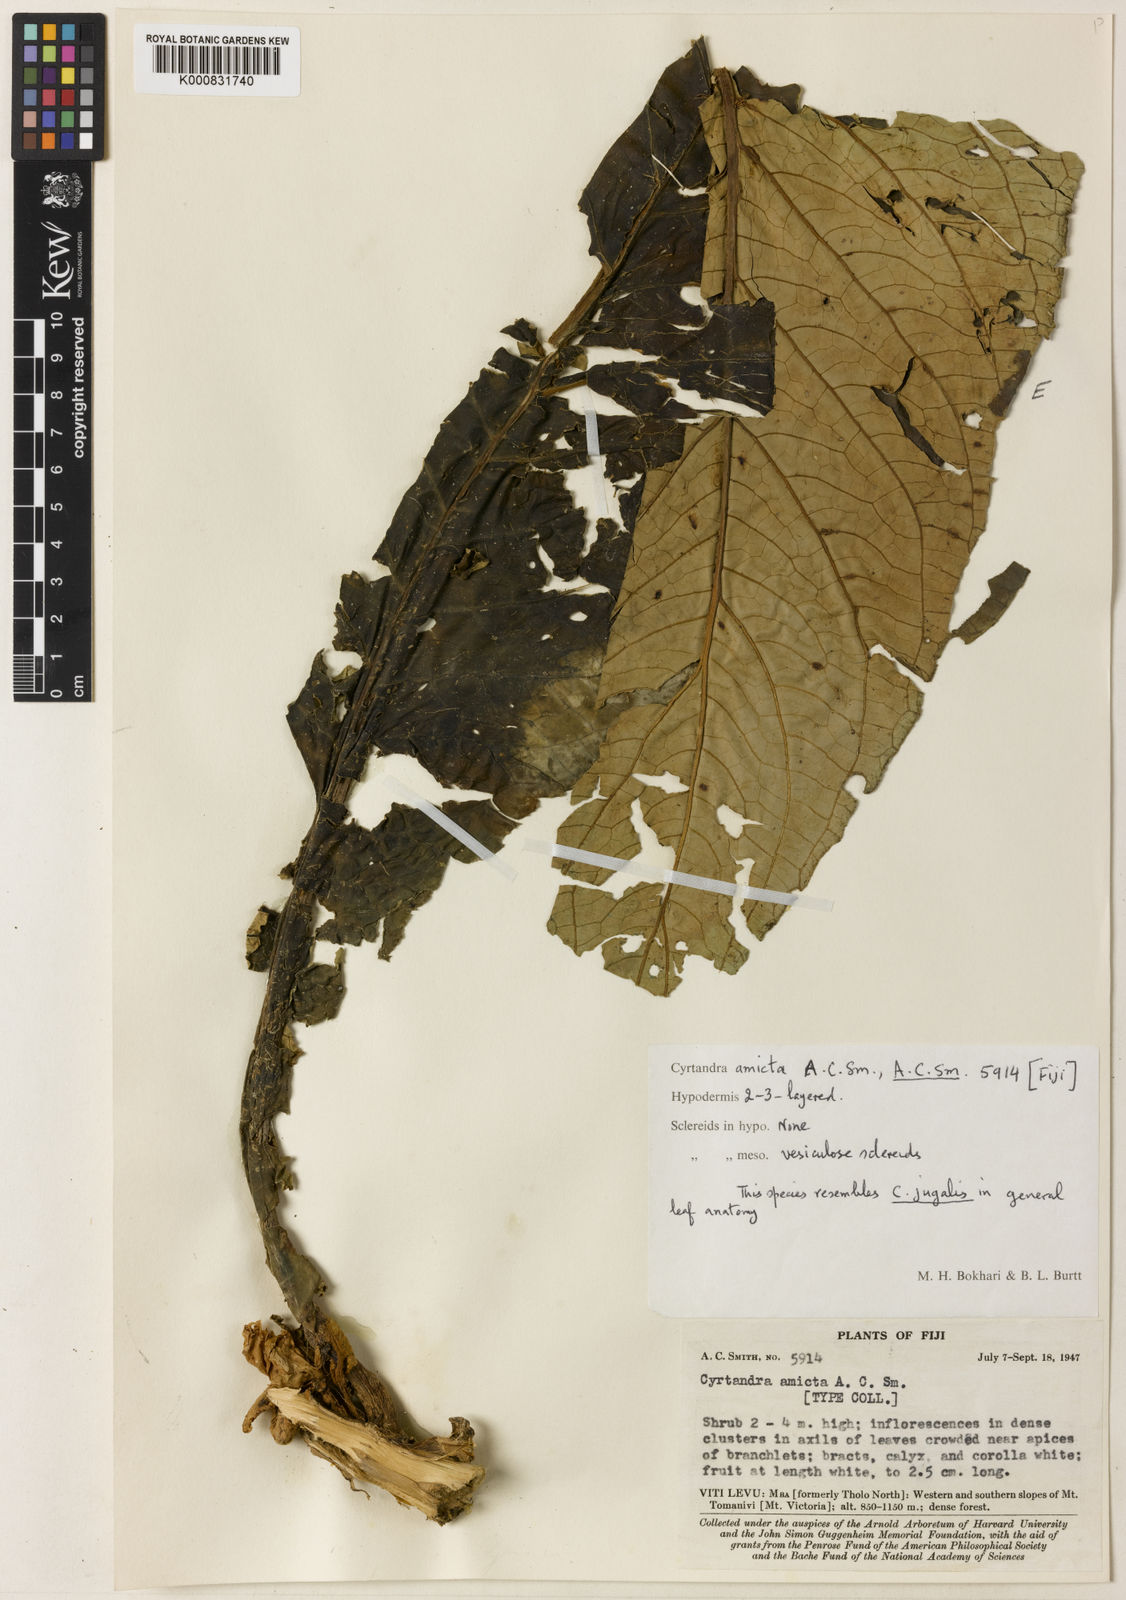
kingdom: Plantae
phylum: Tracheophyta
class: Magnoliopsida
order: Lamiales
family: Gesneriaceae
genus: Cyrtandra
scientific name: Cyrtandra amicta
